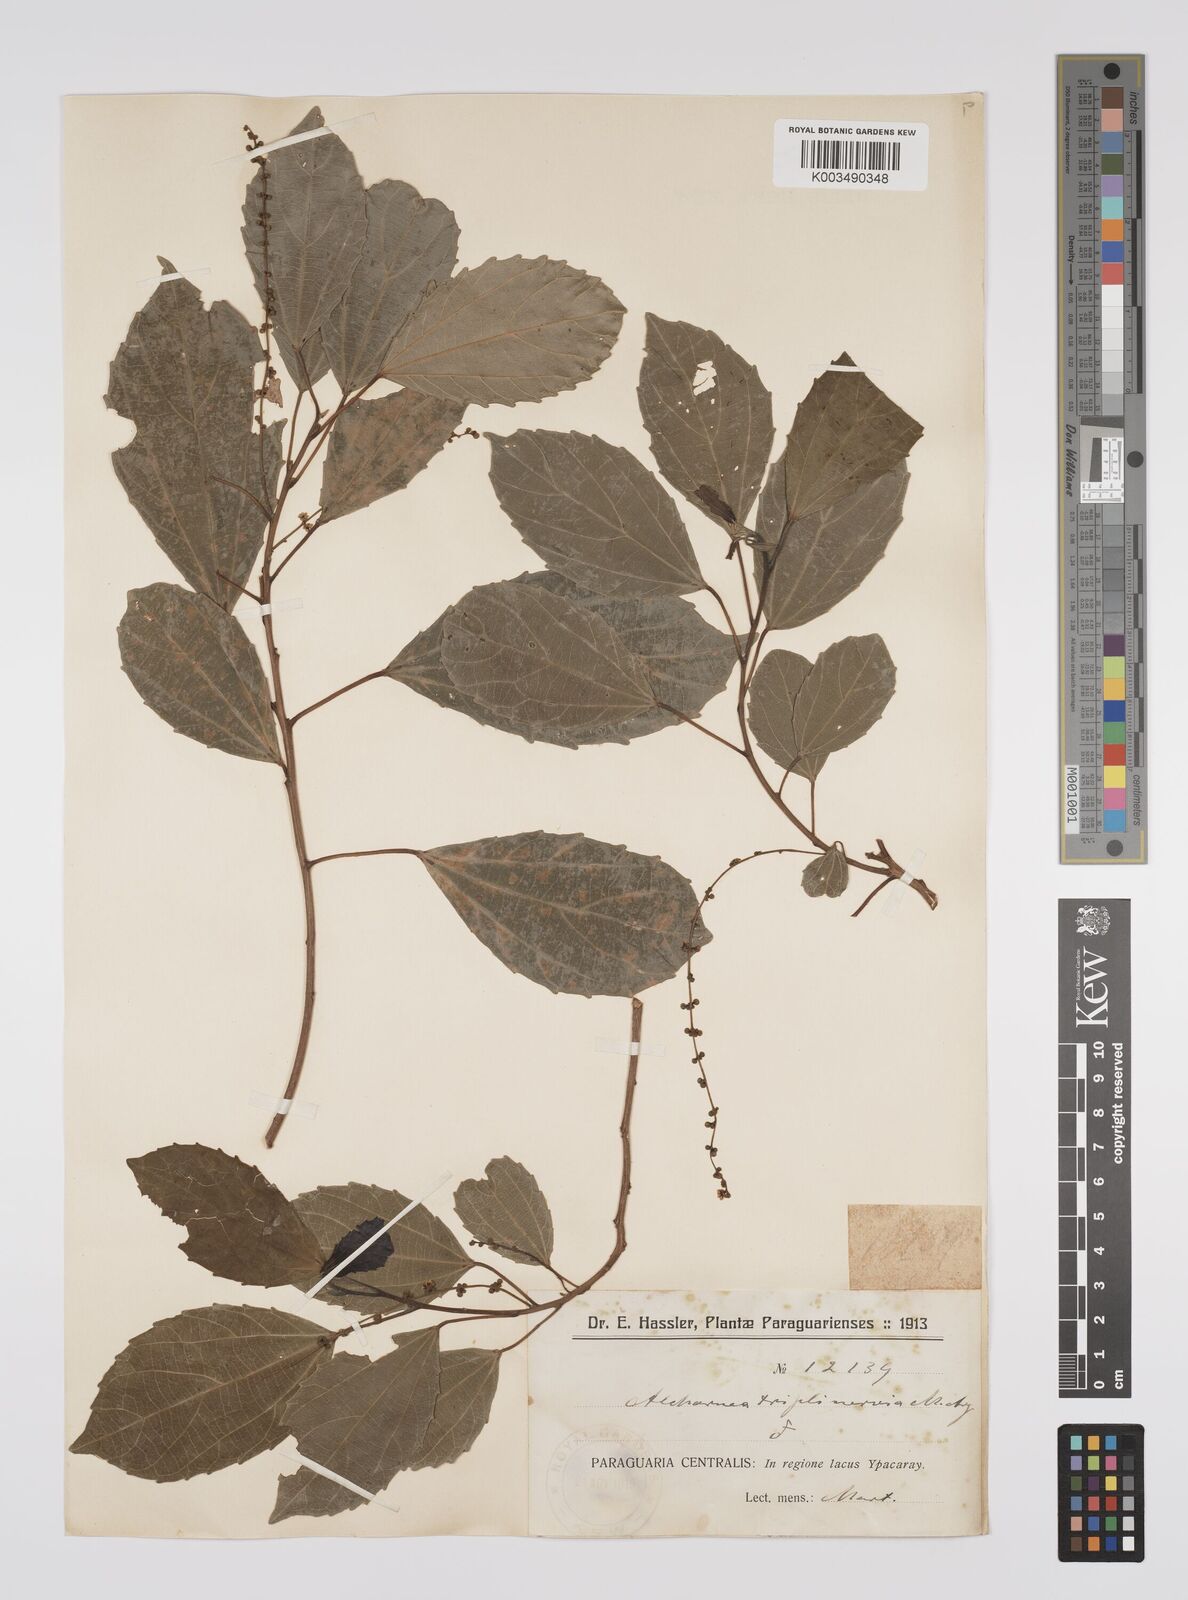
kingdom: Plantae
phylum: Tracheophyta
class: Magnoliopsida
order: Malpighiales
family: Euphorbiaceae
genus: Alchornea
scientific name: Alchornea triplinervia
